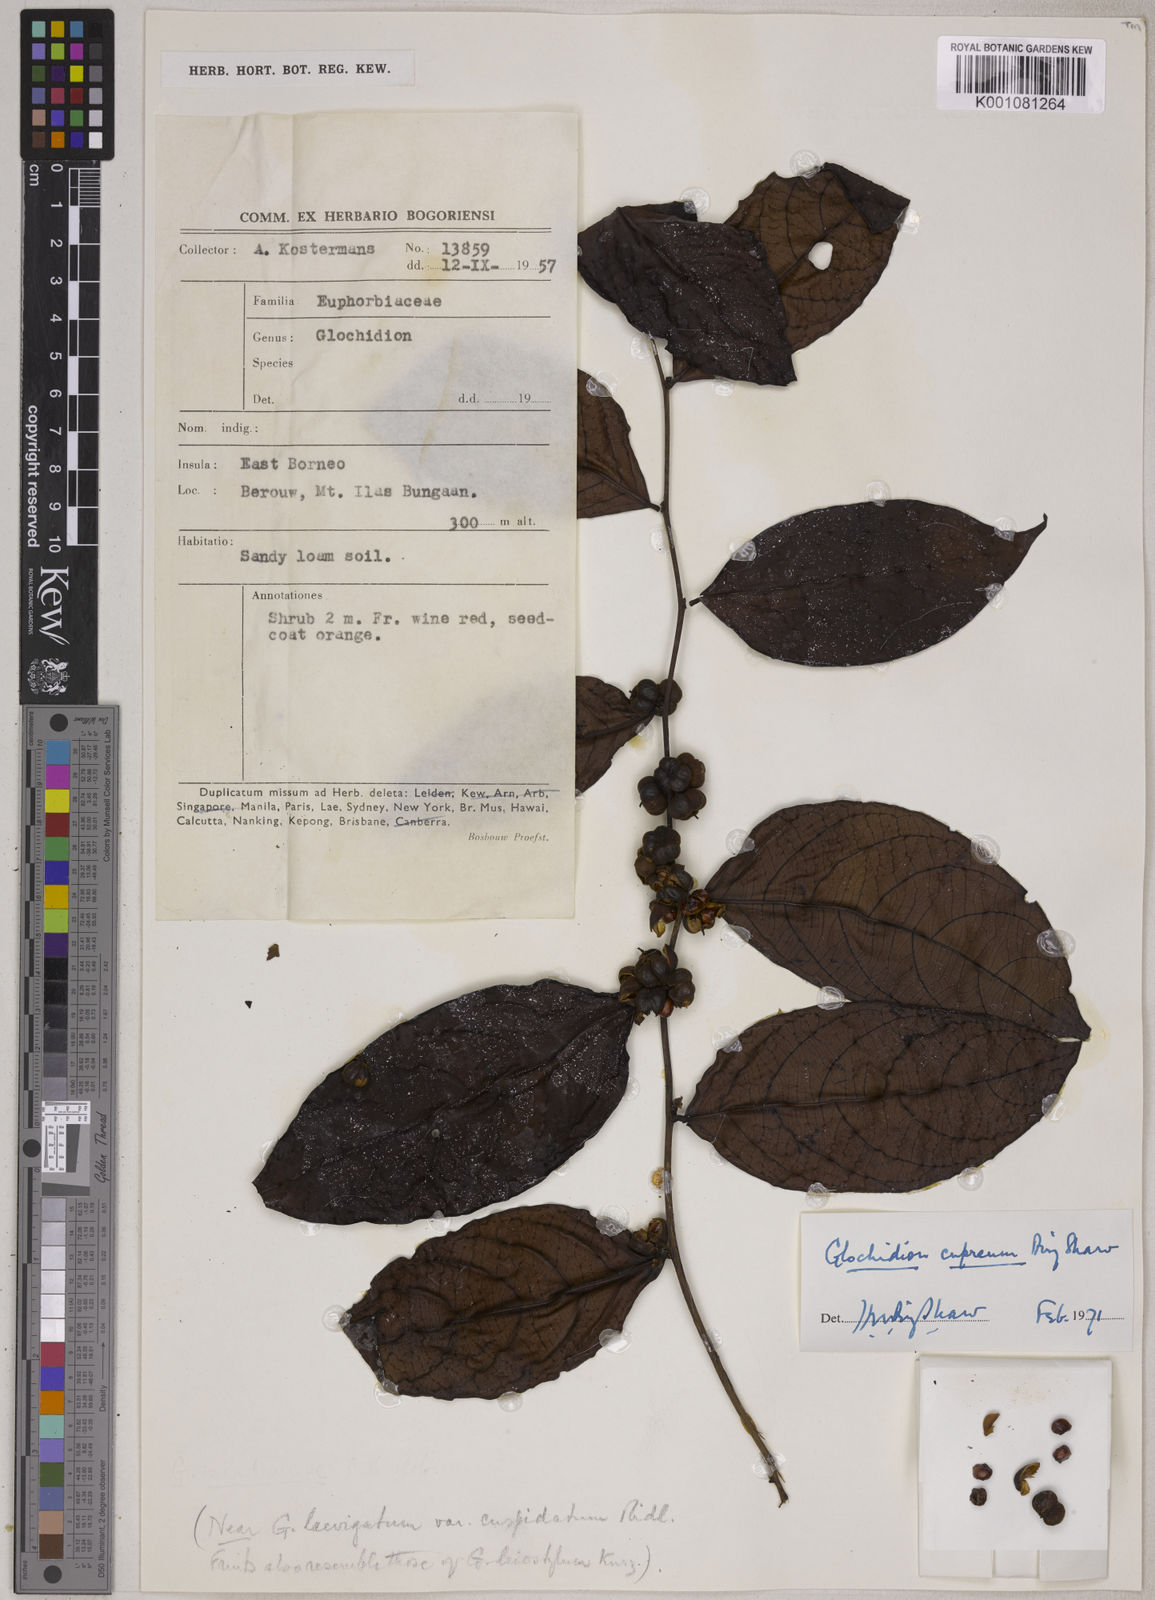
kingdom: Plantae
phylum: Tracheophyta
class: Magnoliopsida
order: Malpighiales
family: Phyllanthaceae
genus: Glochidion
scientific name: Glochidion cupreum
